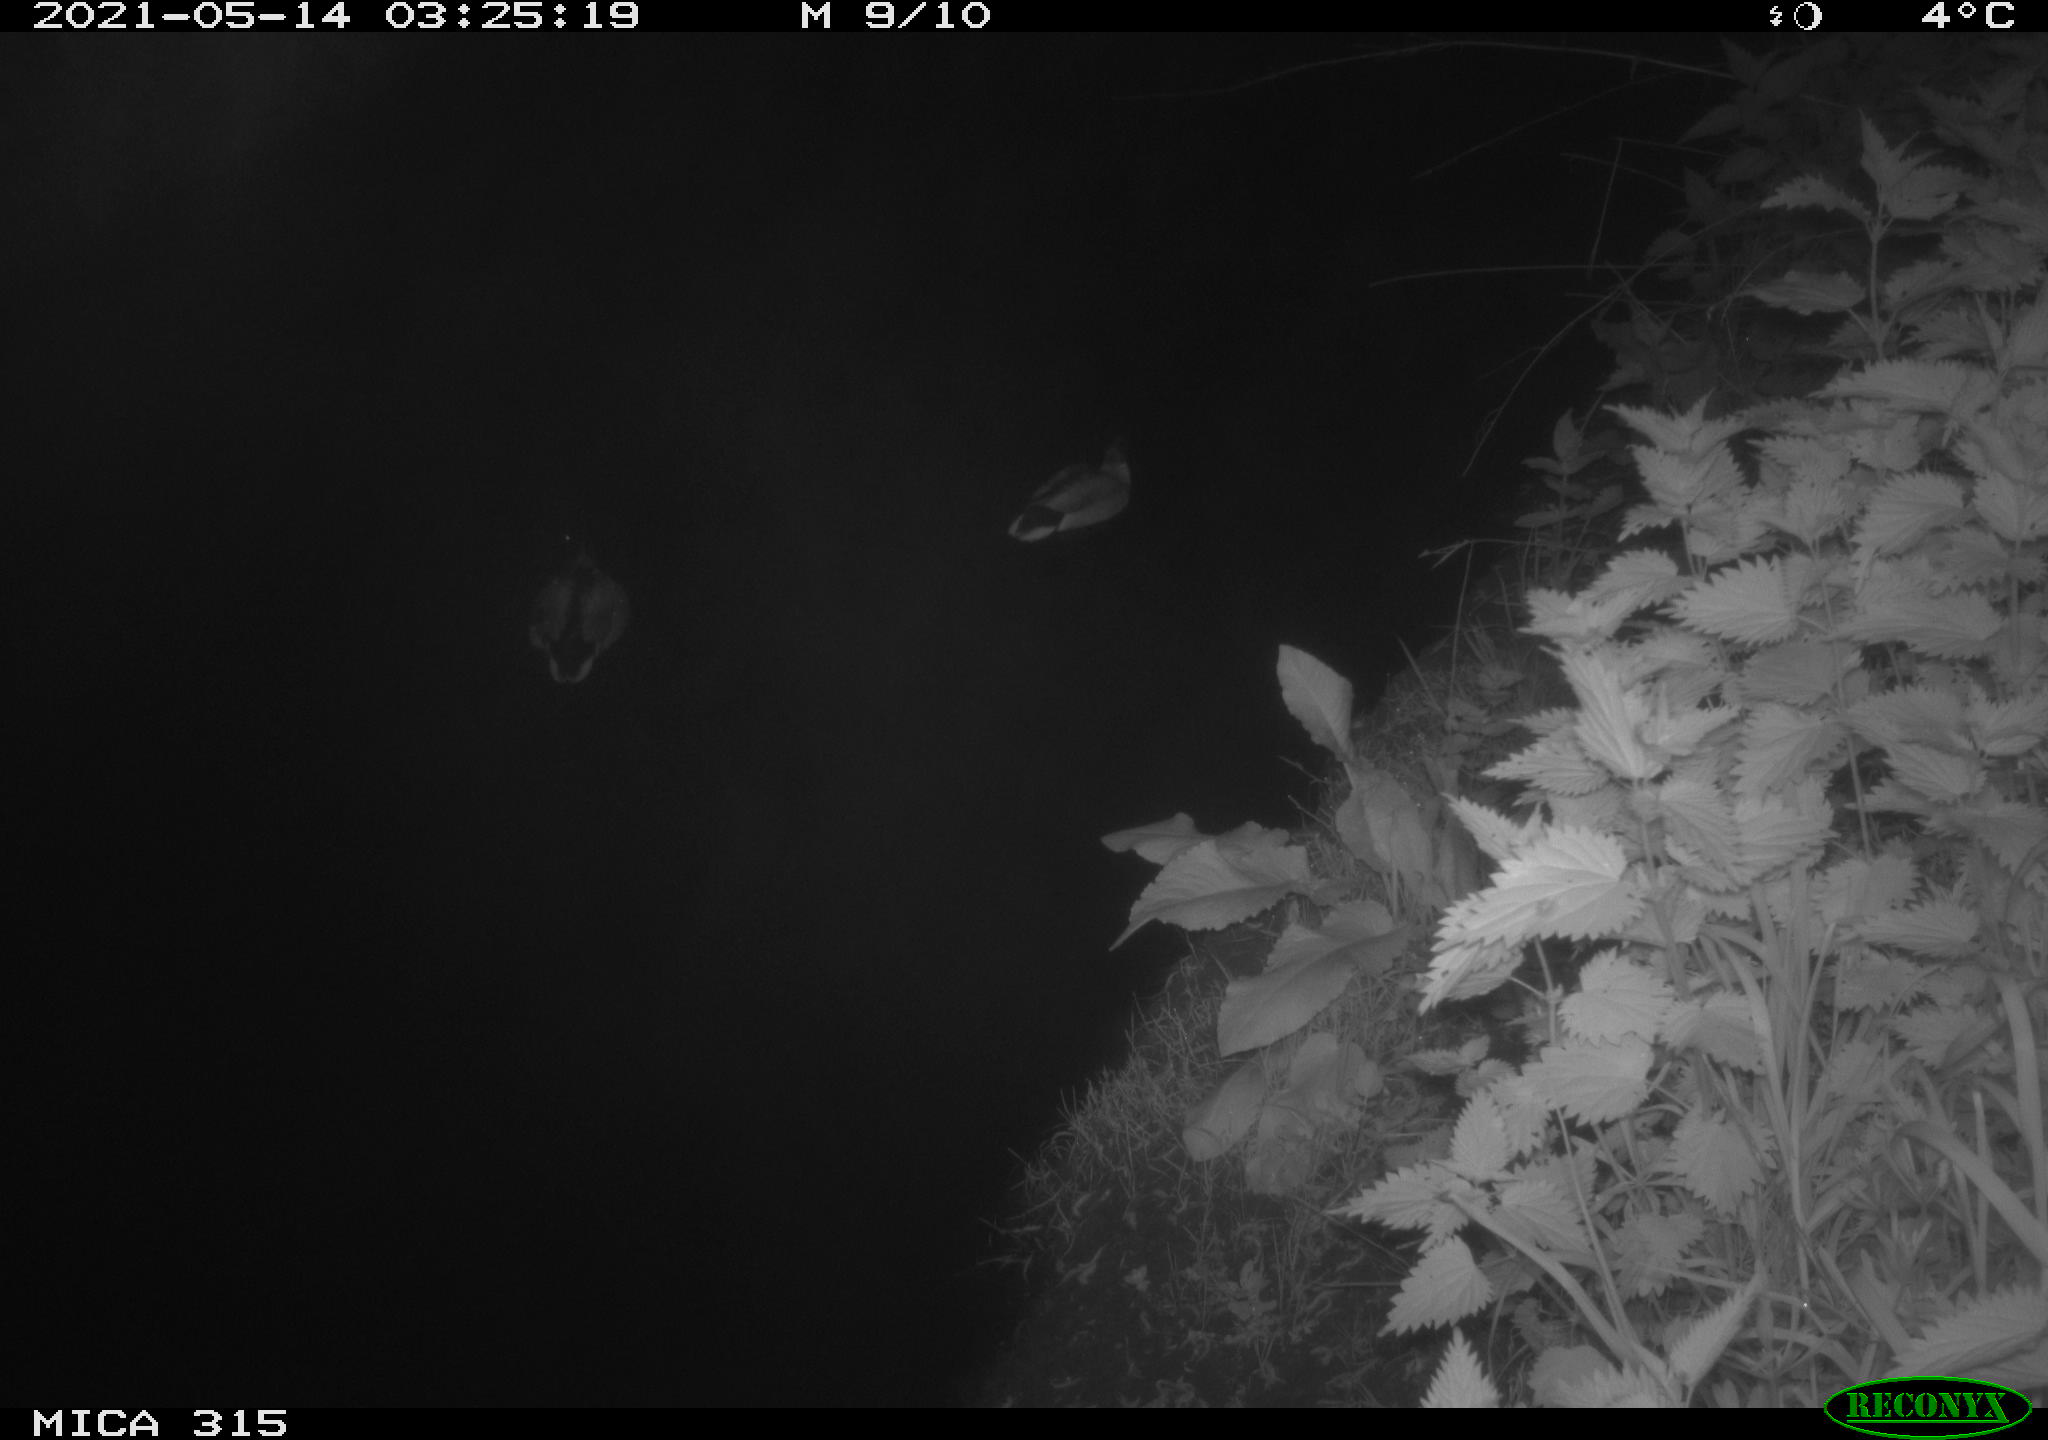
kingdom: Animalia
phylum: Chordata
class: Aves
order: Anseriformes
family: Anatidae
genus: Anas
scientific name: Anas
